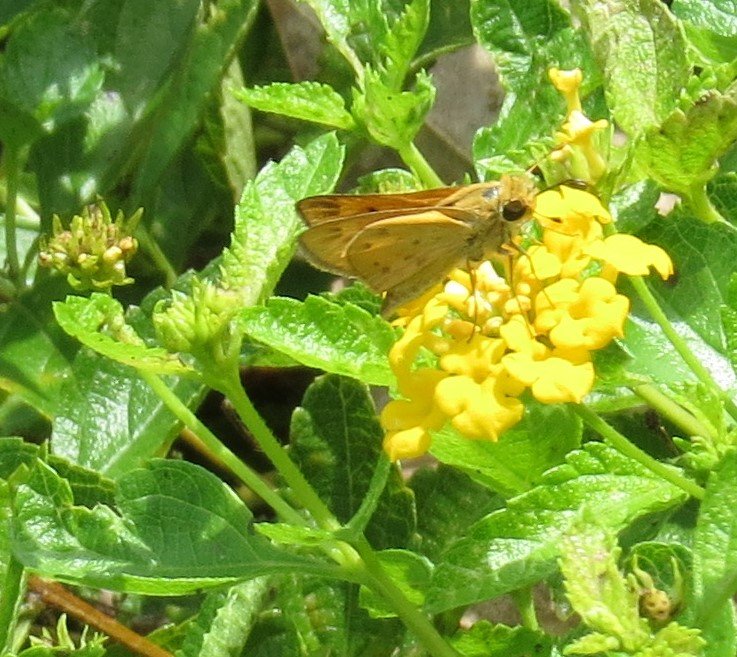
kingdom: Animalia
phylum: Arthropoda
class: Insecta
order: Lepidoptera
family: Hesperiidae
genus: Hylephila
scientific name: Hylephila phyleus
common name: Fiery Skipper
